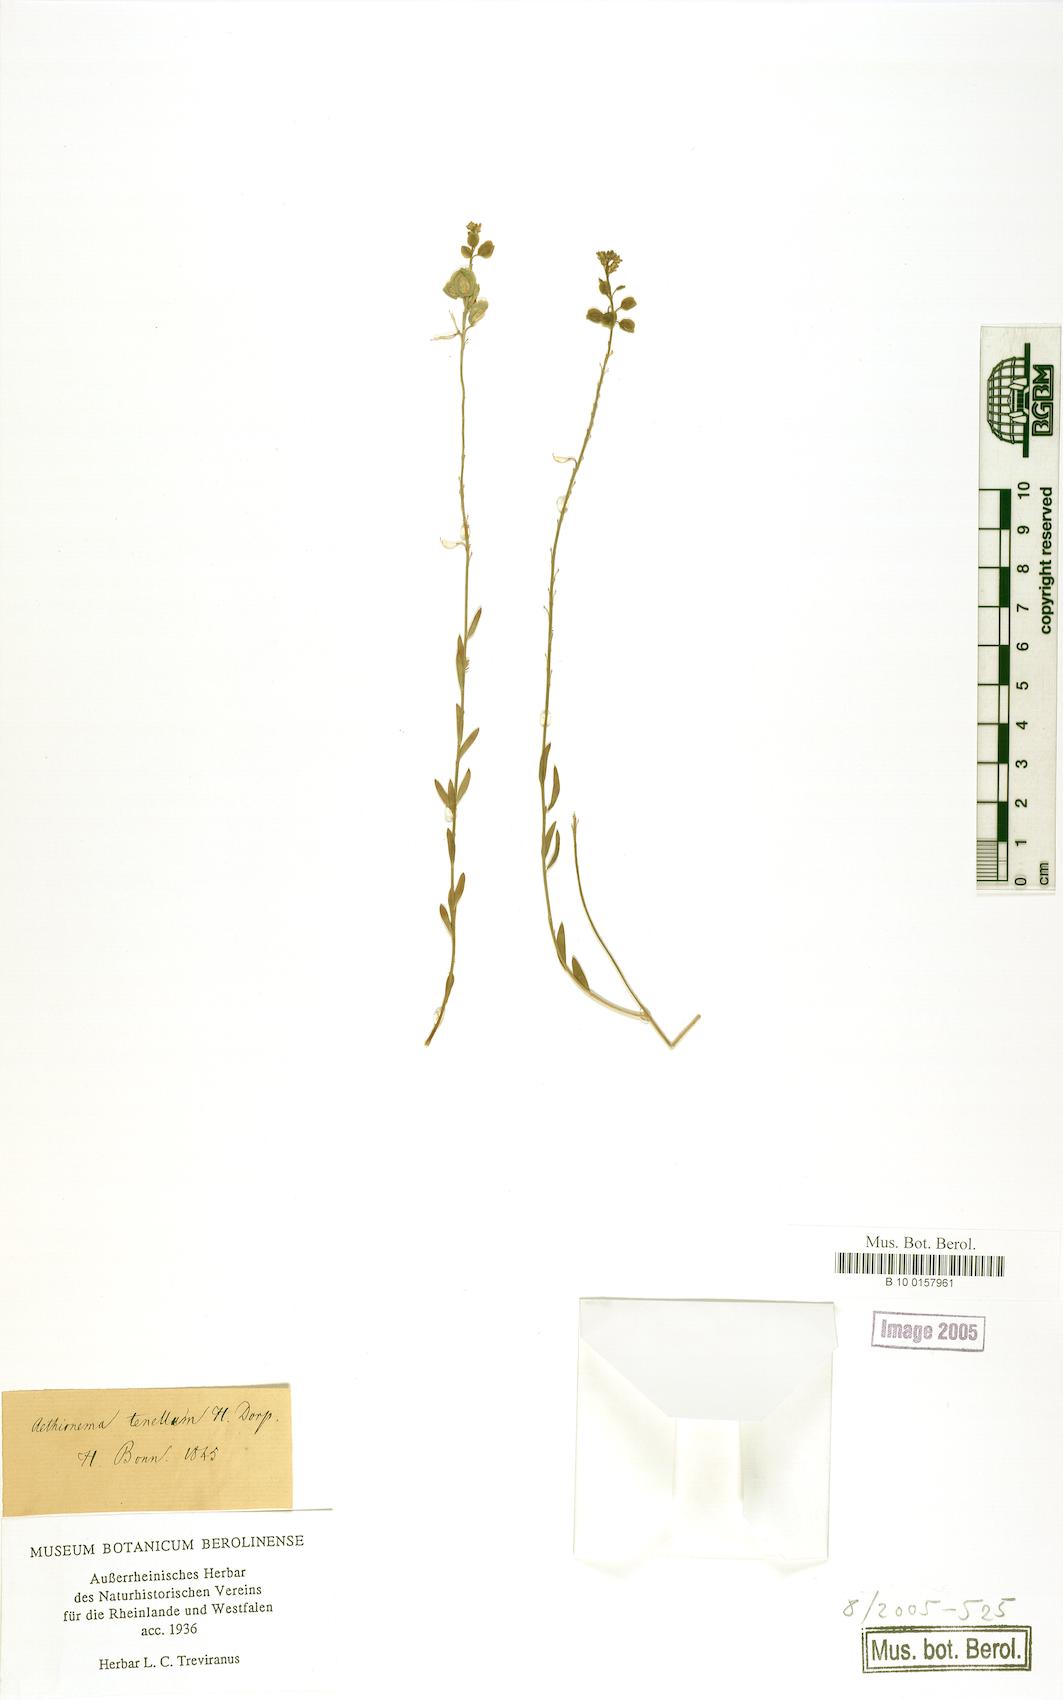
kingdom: Plantae
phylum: Tracheophyta
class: Magnoliopsida
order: Brassicales
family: Brassicaceae
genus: Aethionema
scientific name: Aethionema
